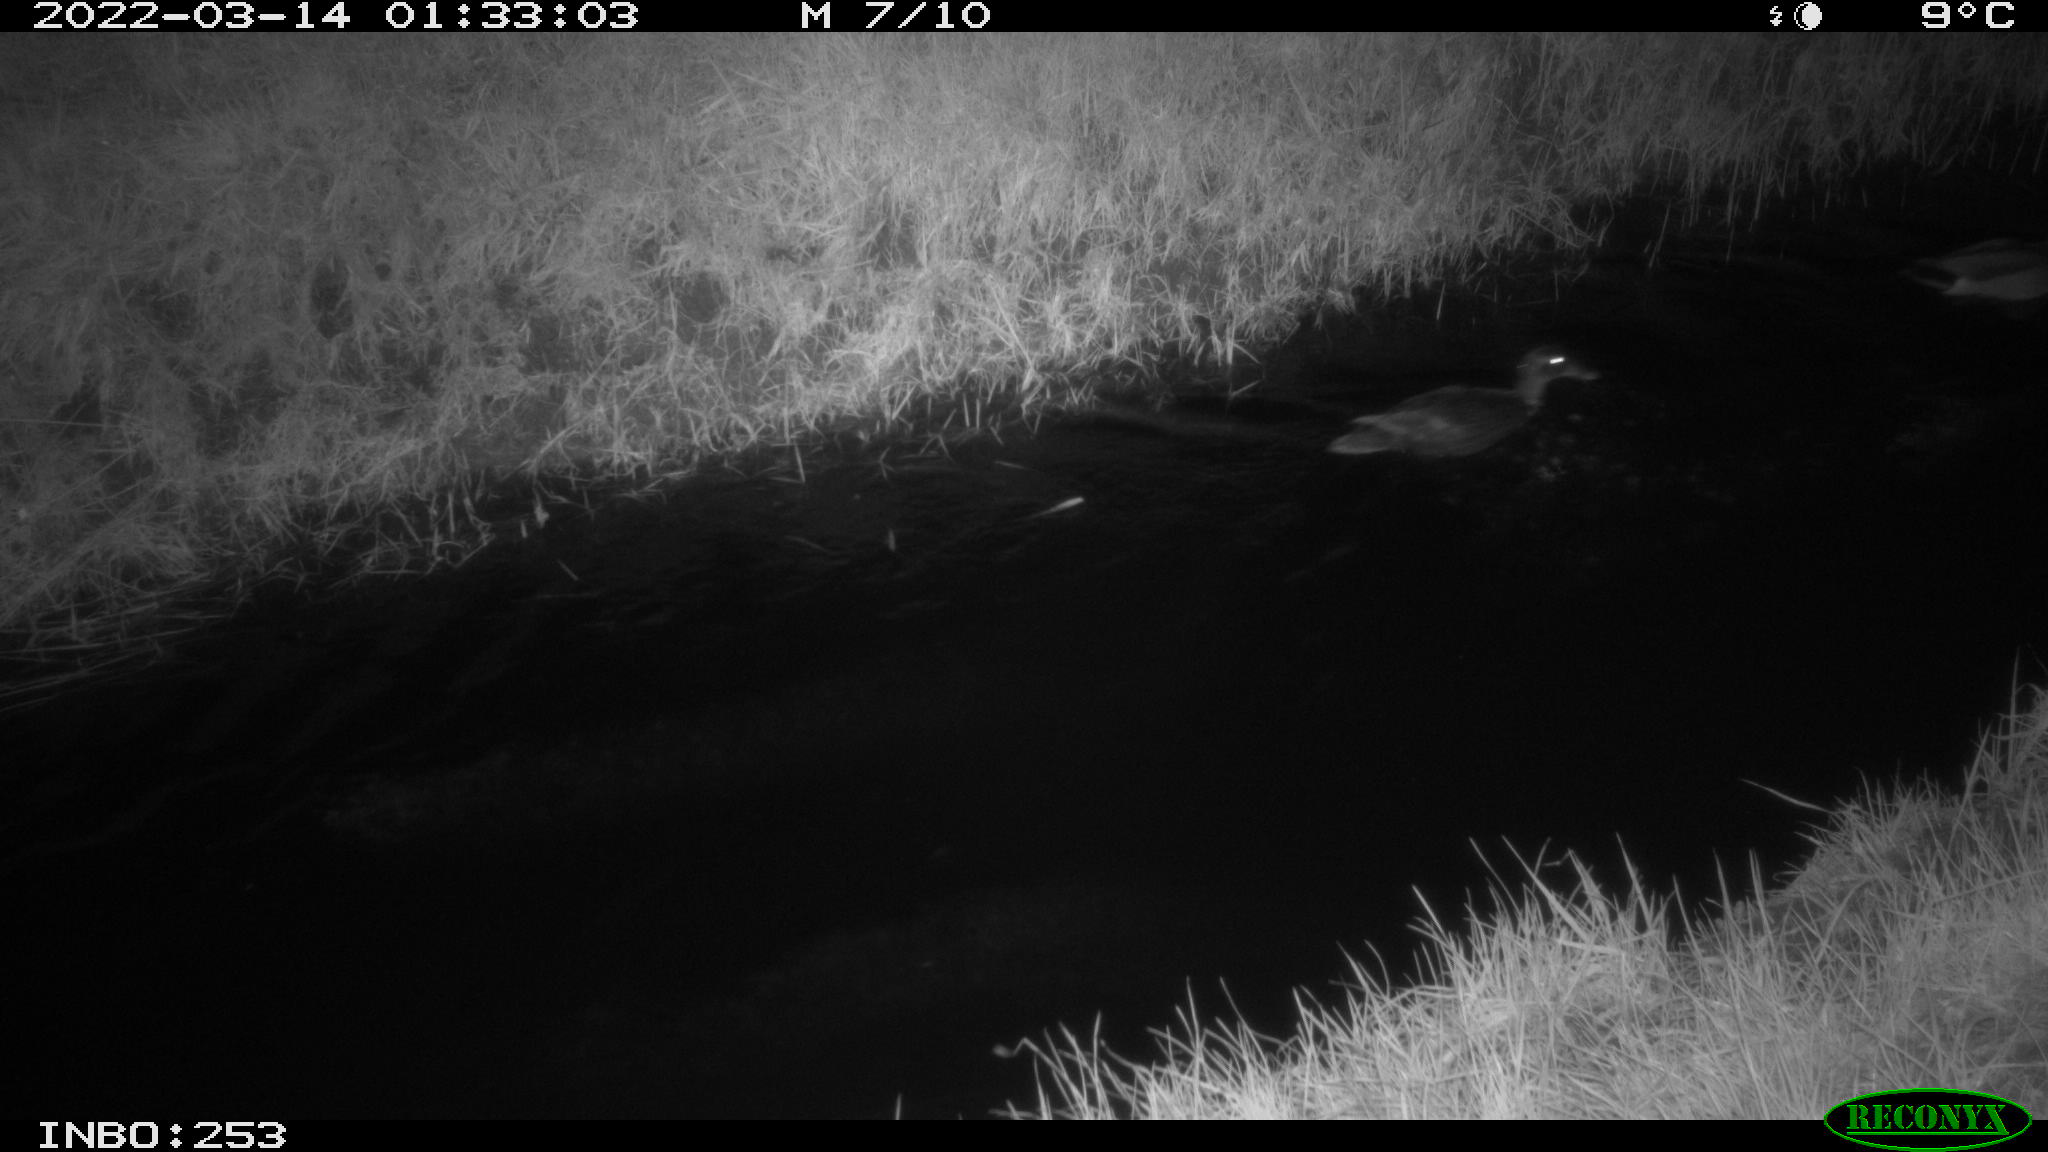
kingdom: Animalia
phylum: Chordata
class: Aves
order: Anseriformes
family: Anatidae
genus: Anas
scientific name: Anas platyrhynchos
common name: Mallard
